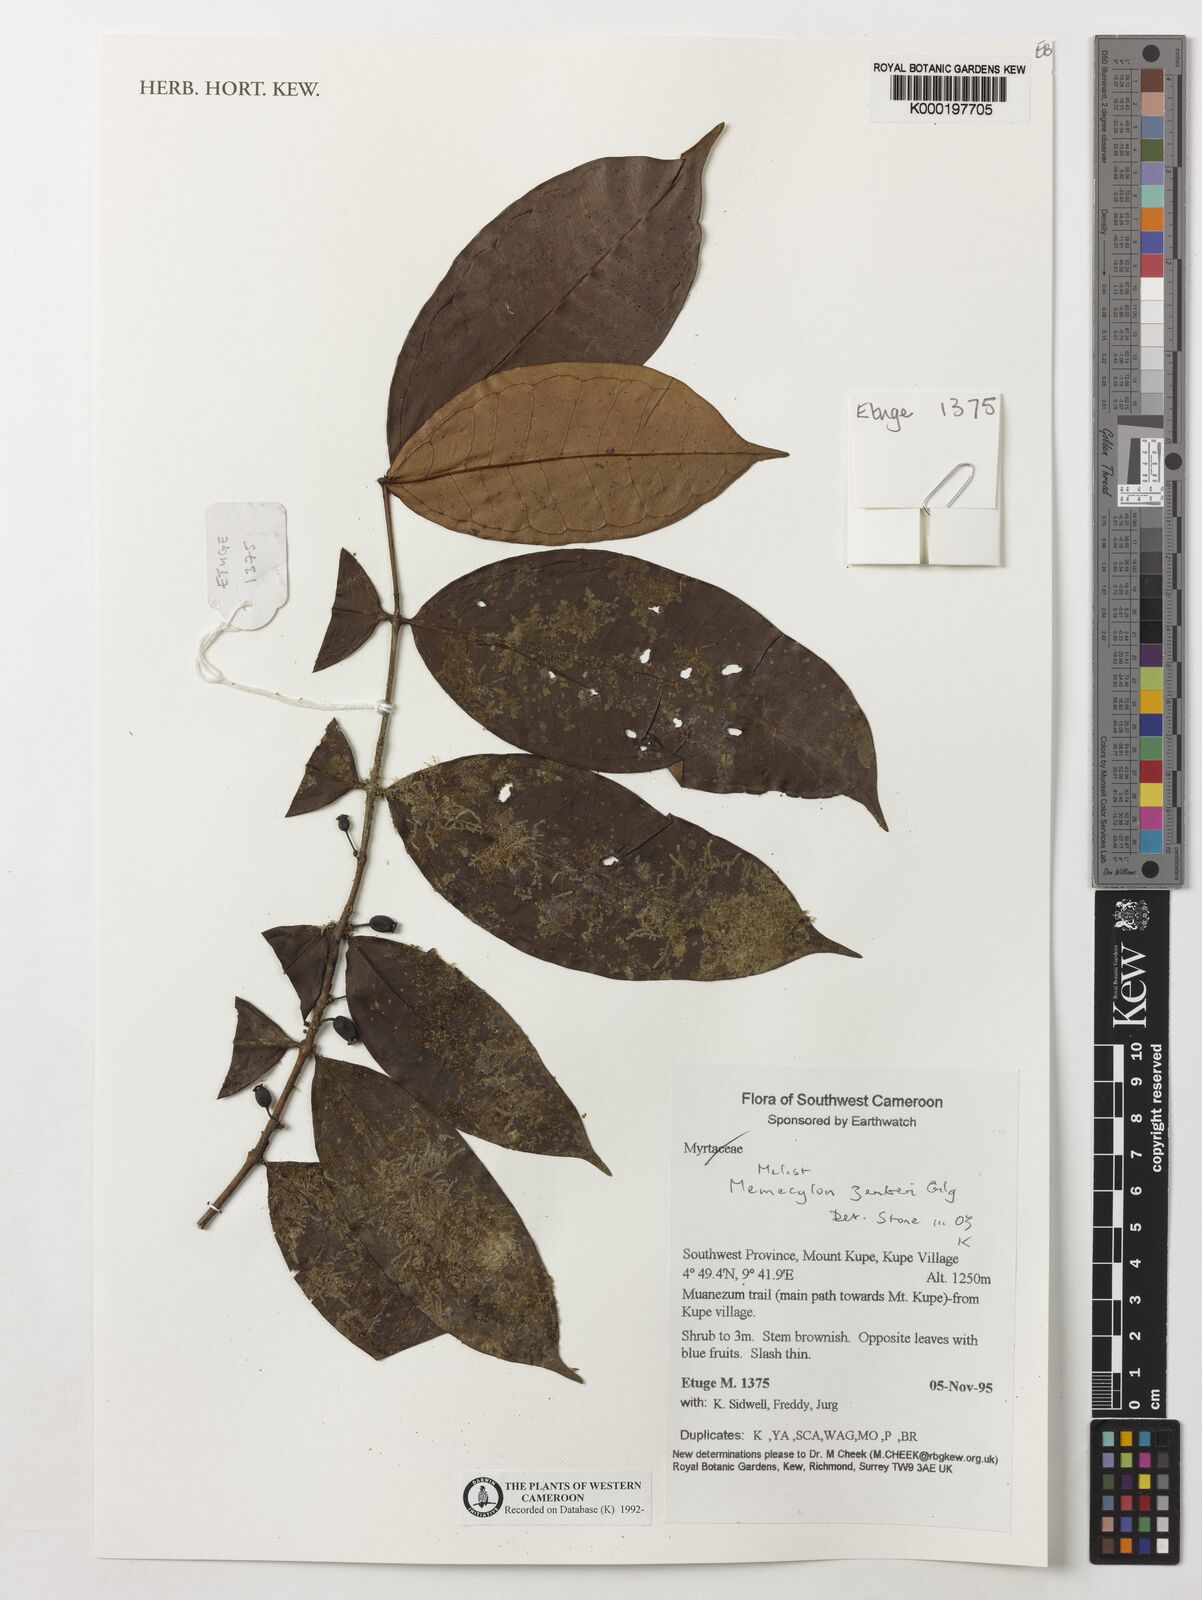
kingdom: Plantae
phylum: Tracheophyta
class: Magnoliopsida
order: Myrtales
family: Melastomataceae
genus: Memecylon
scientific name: Memecylon zenkeri
